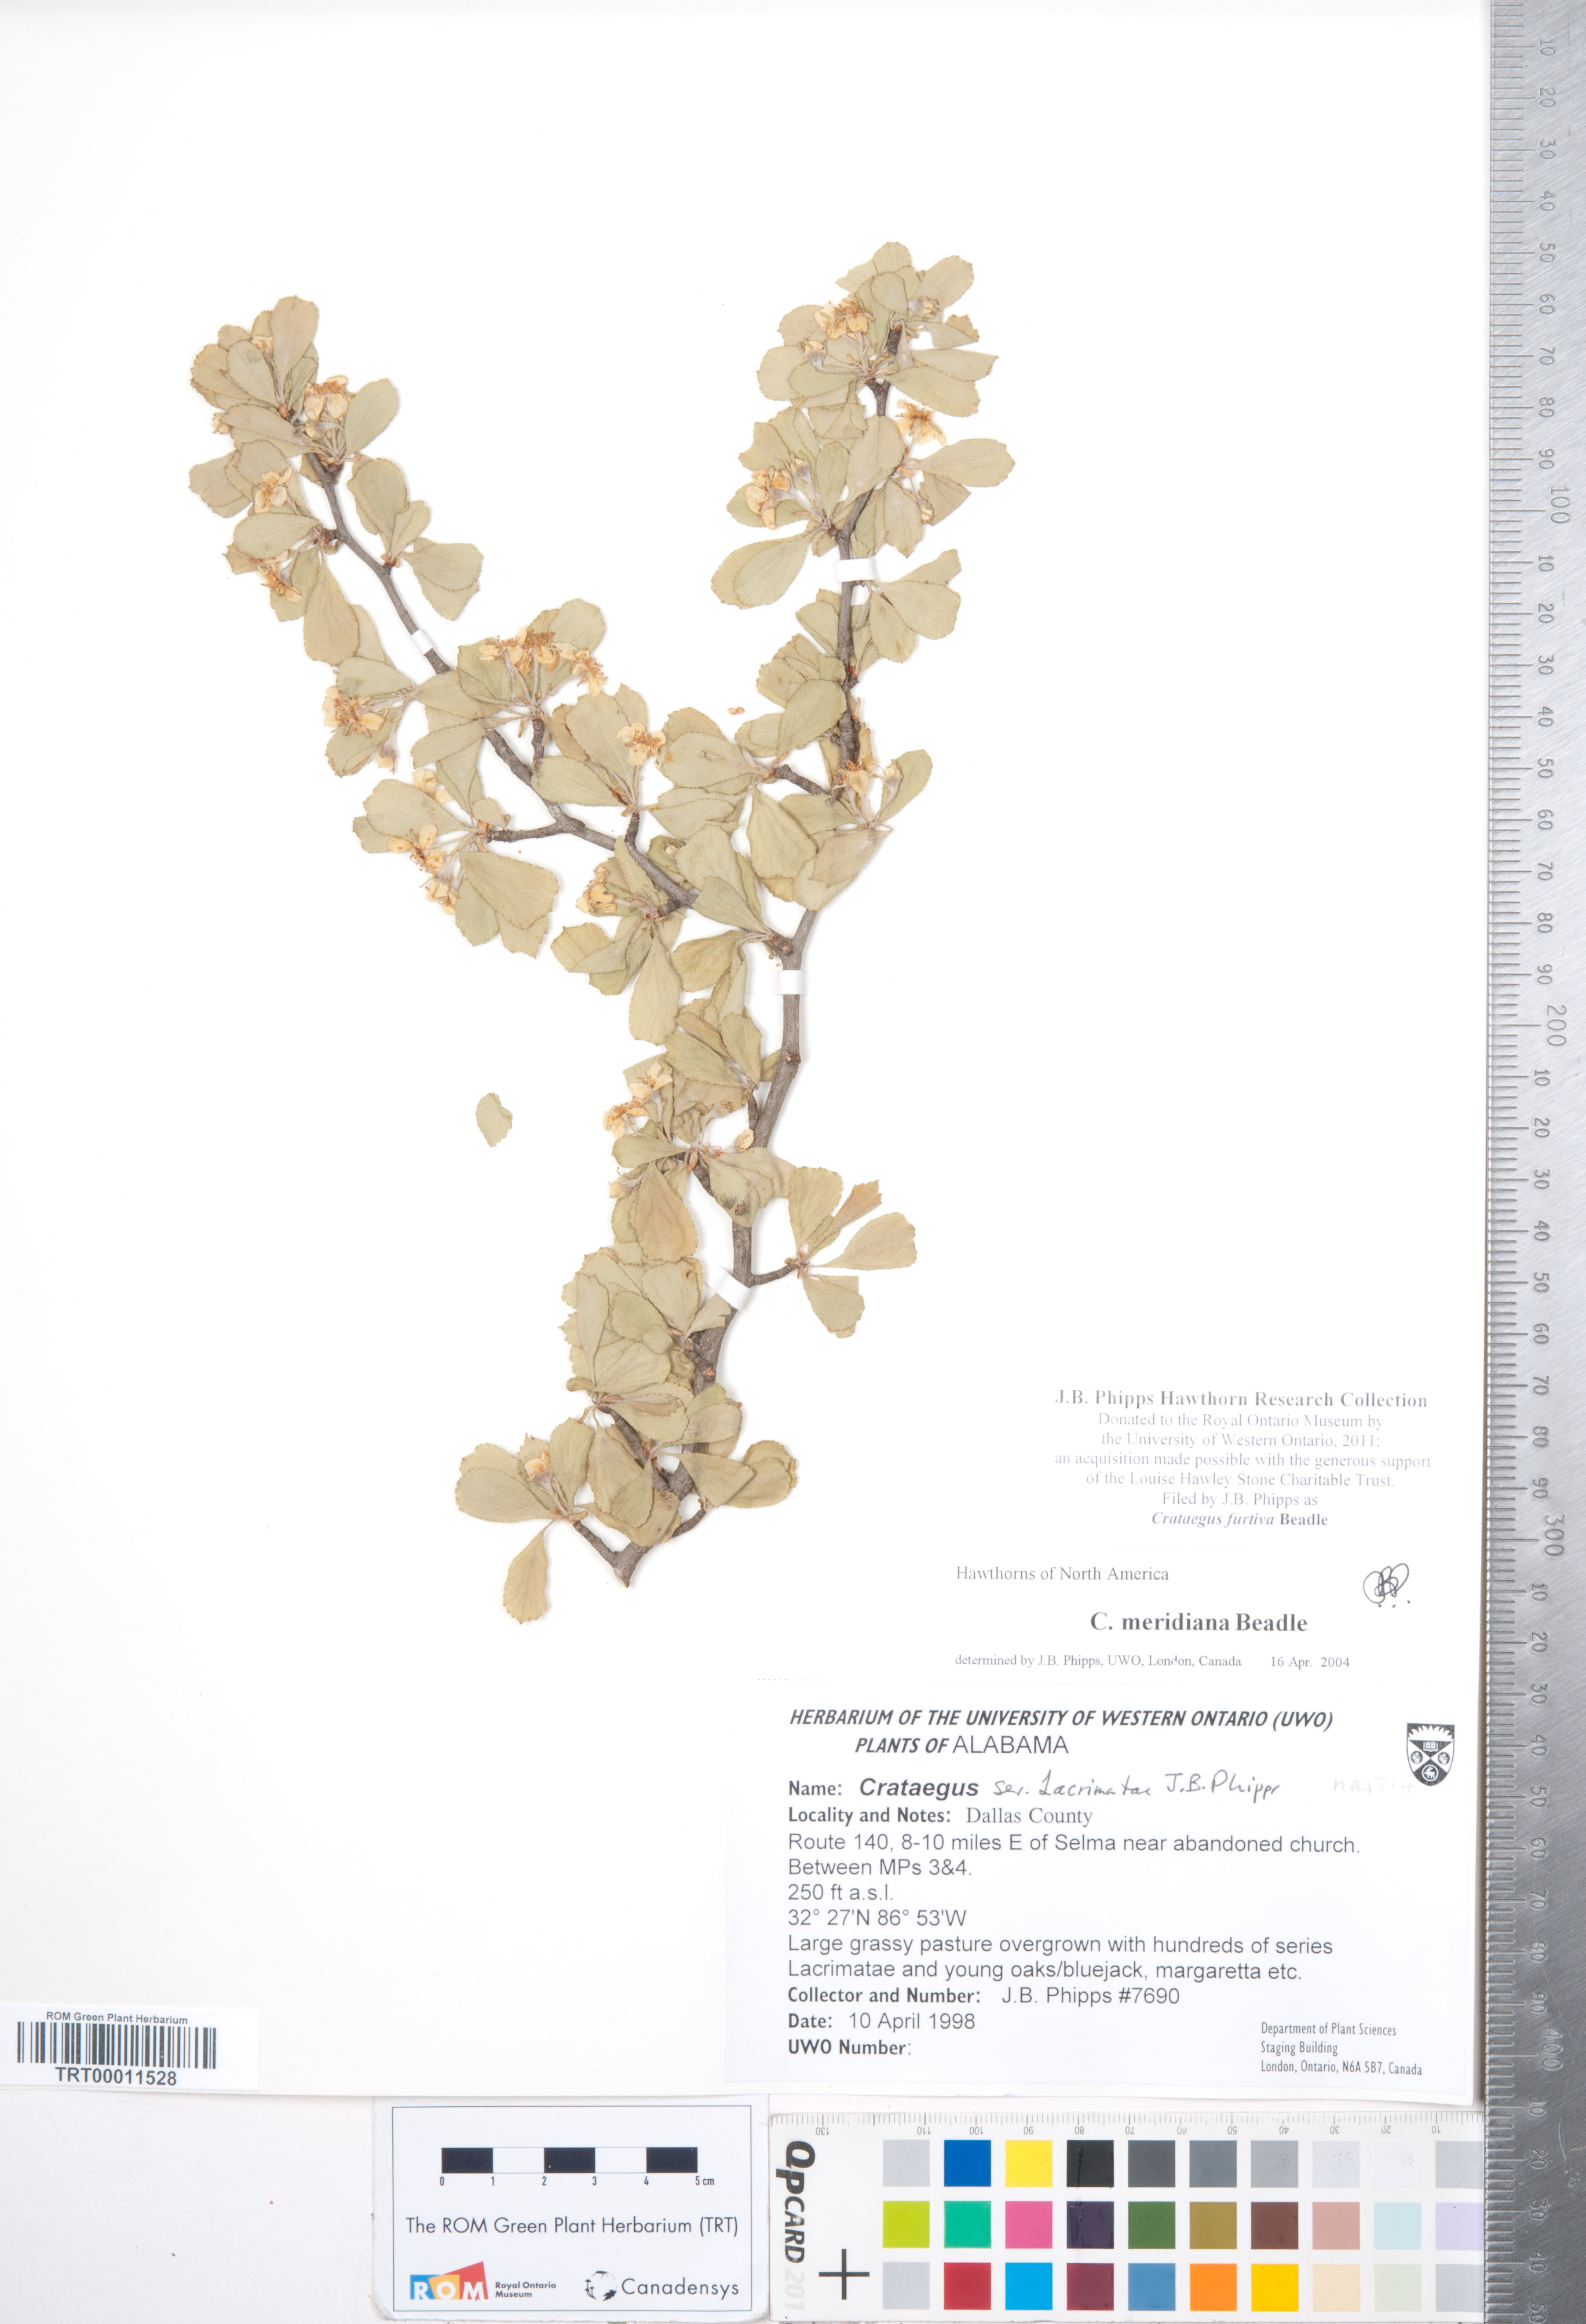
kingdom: Plantae
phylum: Tracheophyta
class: Magnoliopsida
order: Rosales
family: Rosaceae
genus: Crataegus
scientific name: Crataegus senta
